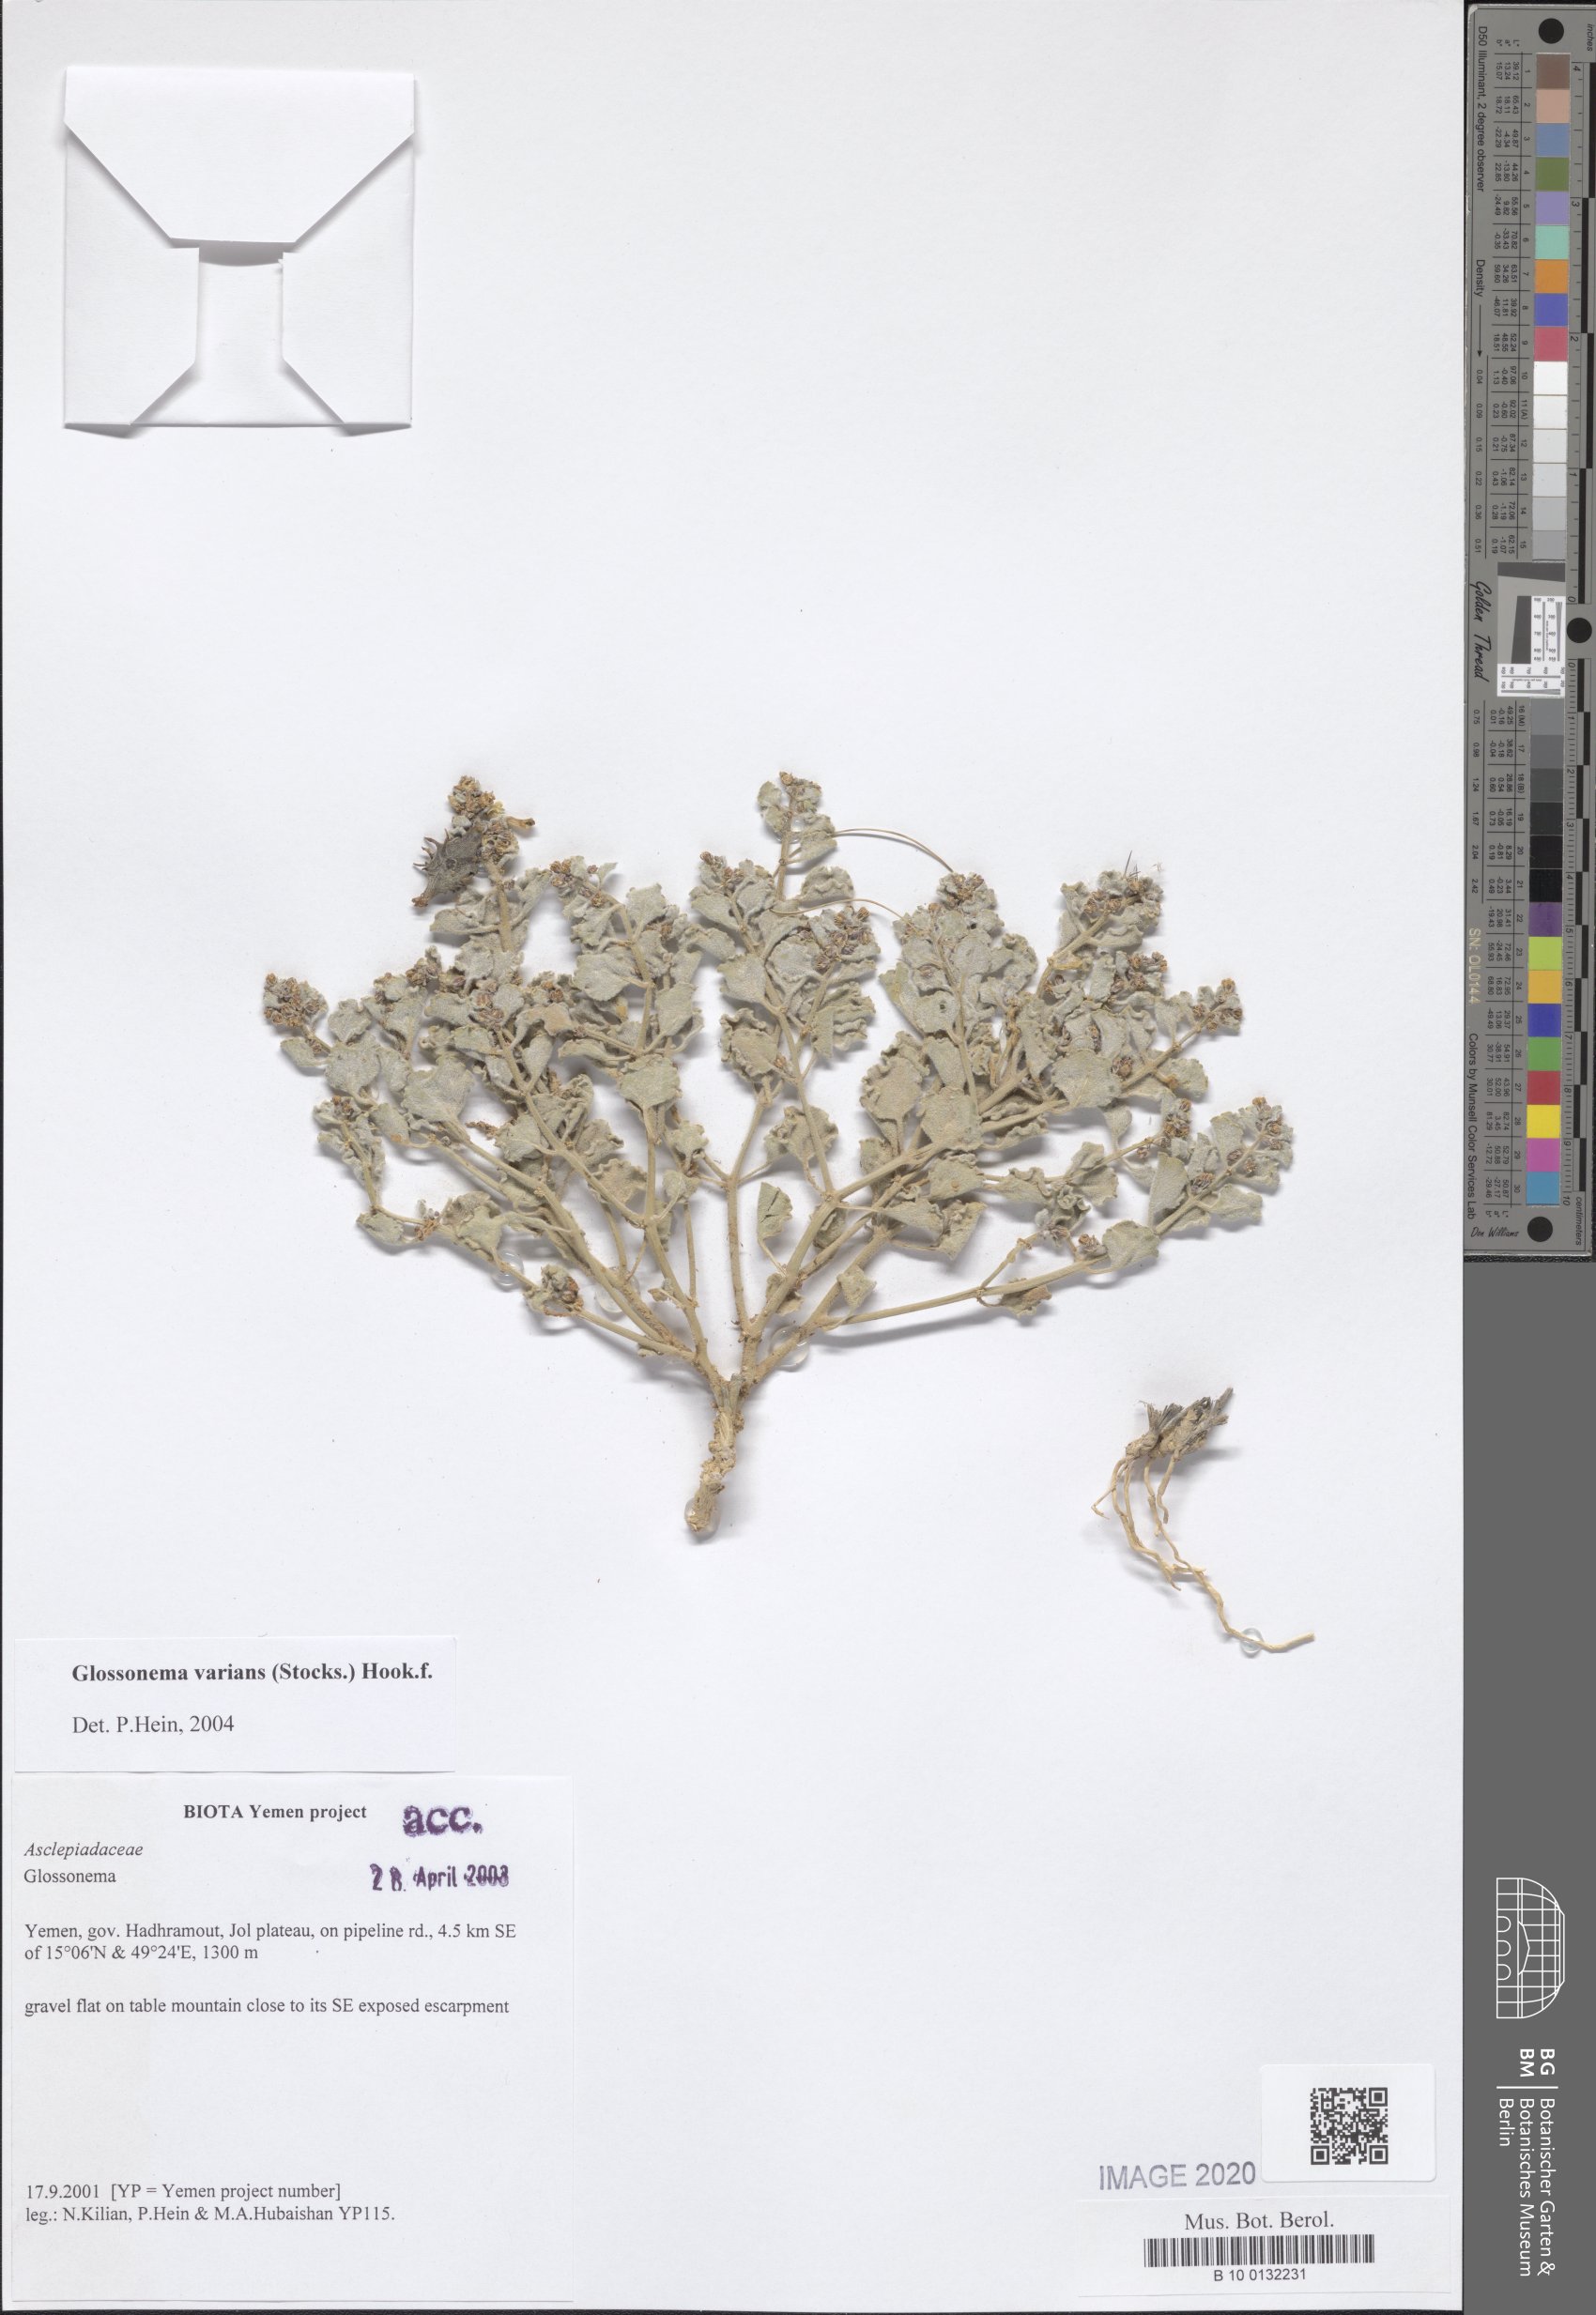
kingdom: Plantae
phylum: Tracheophyta
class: Magnoliopsida
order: Gentianales
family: Apocynaceae
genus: Cynanchum
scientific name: Cynanchum varians
